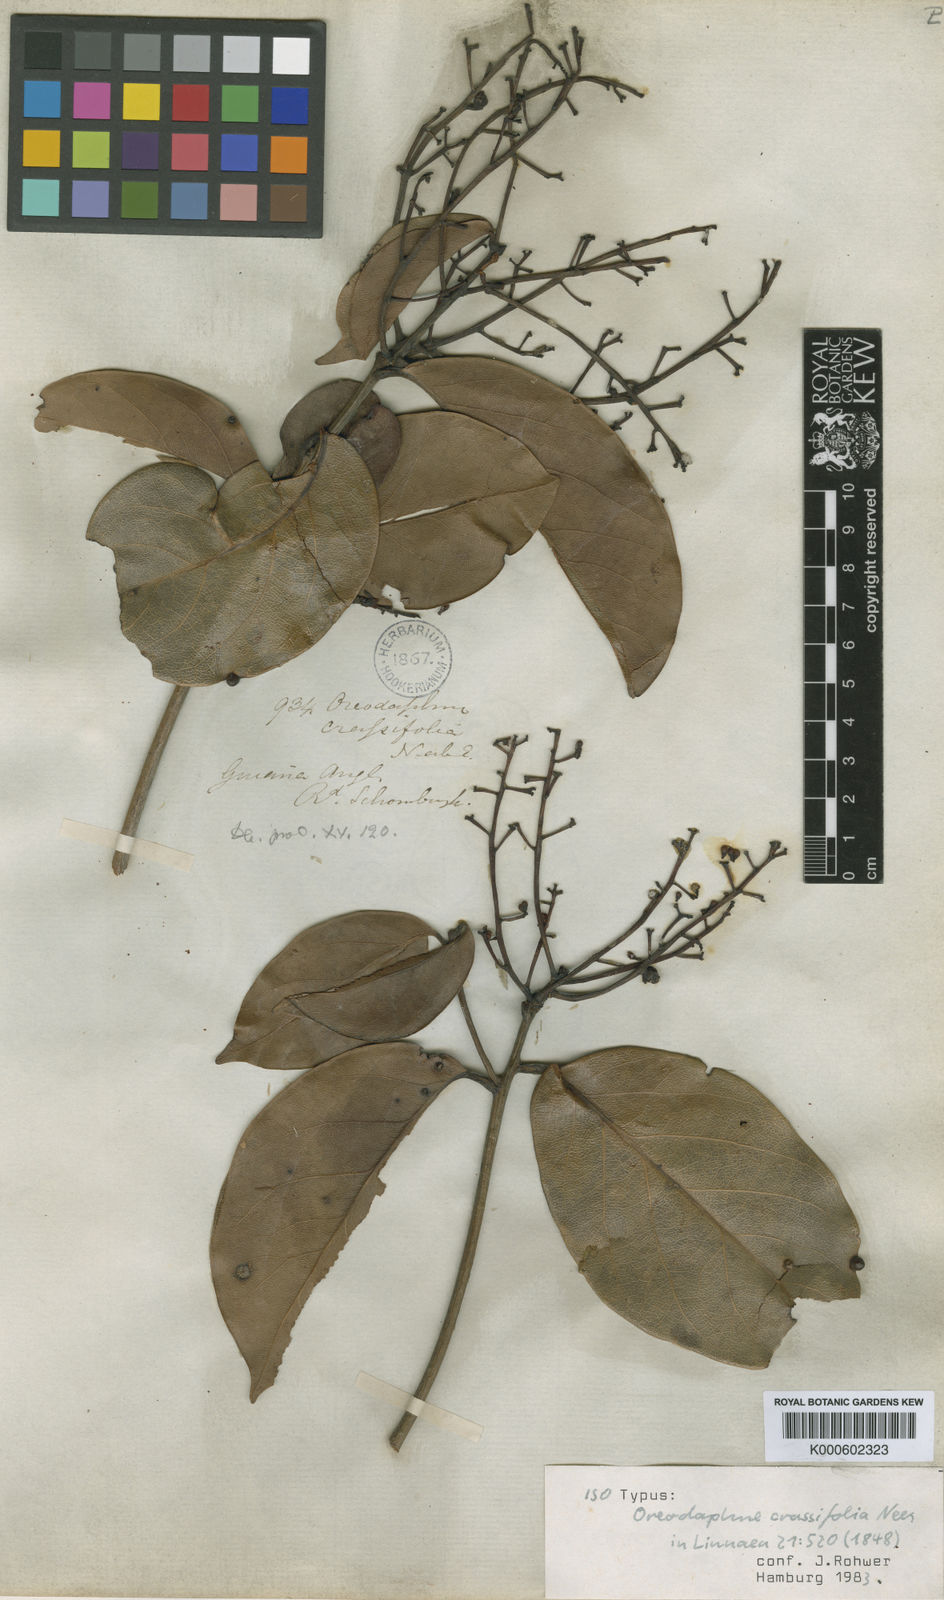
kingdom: Plantae
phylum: Tracheophyta
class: Magnoliopsida
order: Laurales
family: Lauraceae
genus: Ocotea
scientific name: Ocotea crassifolia
